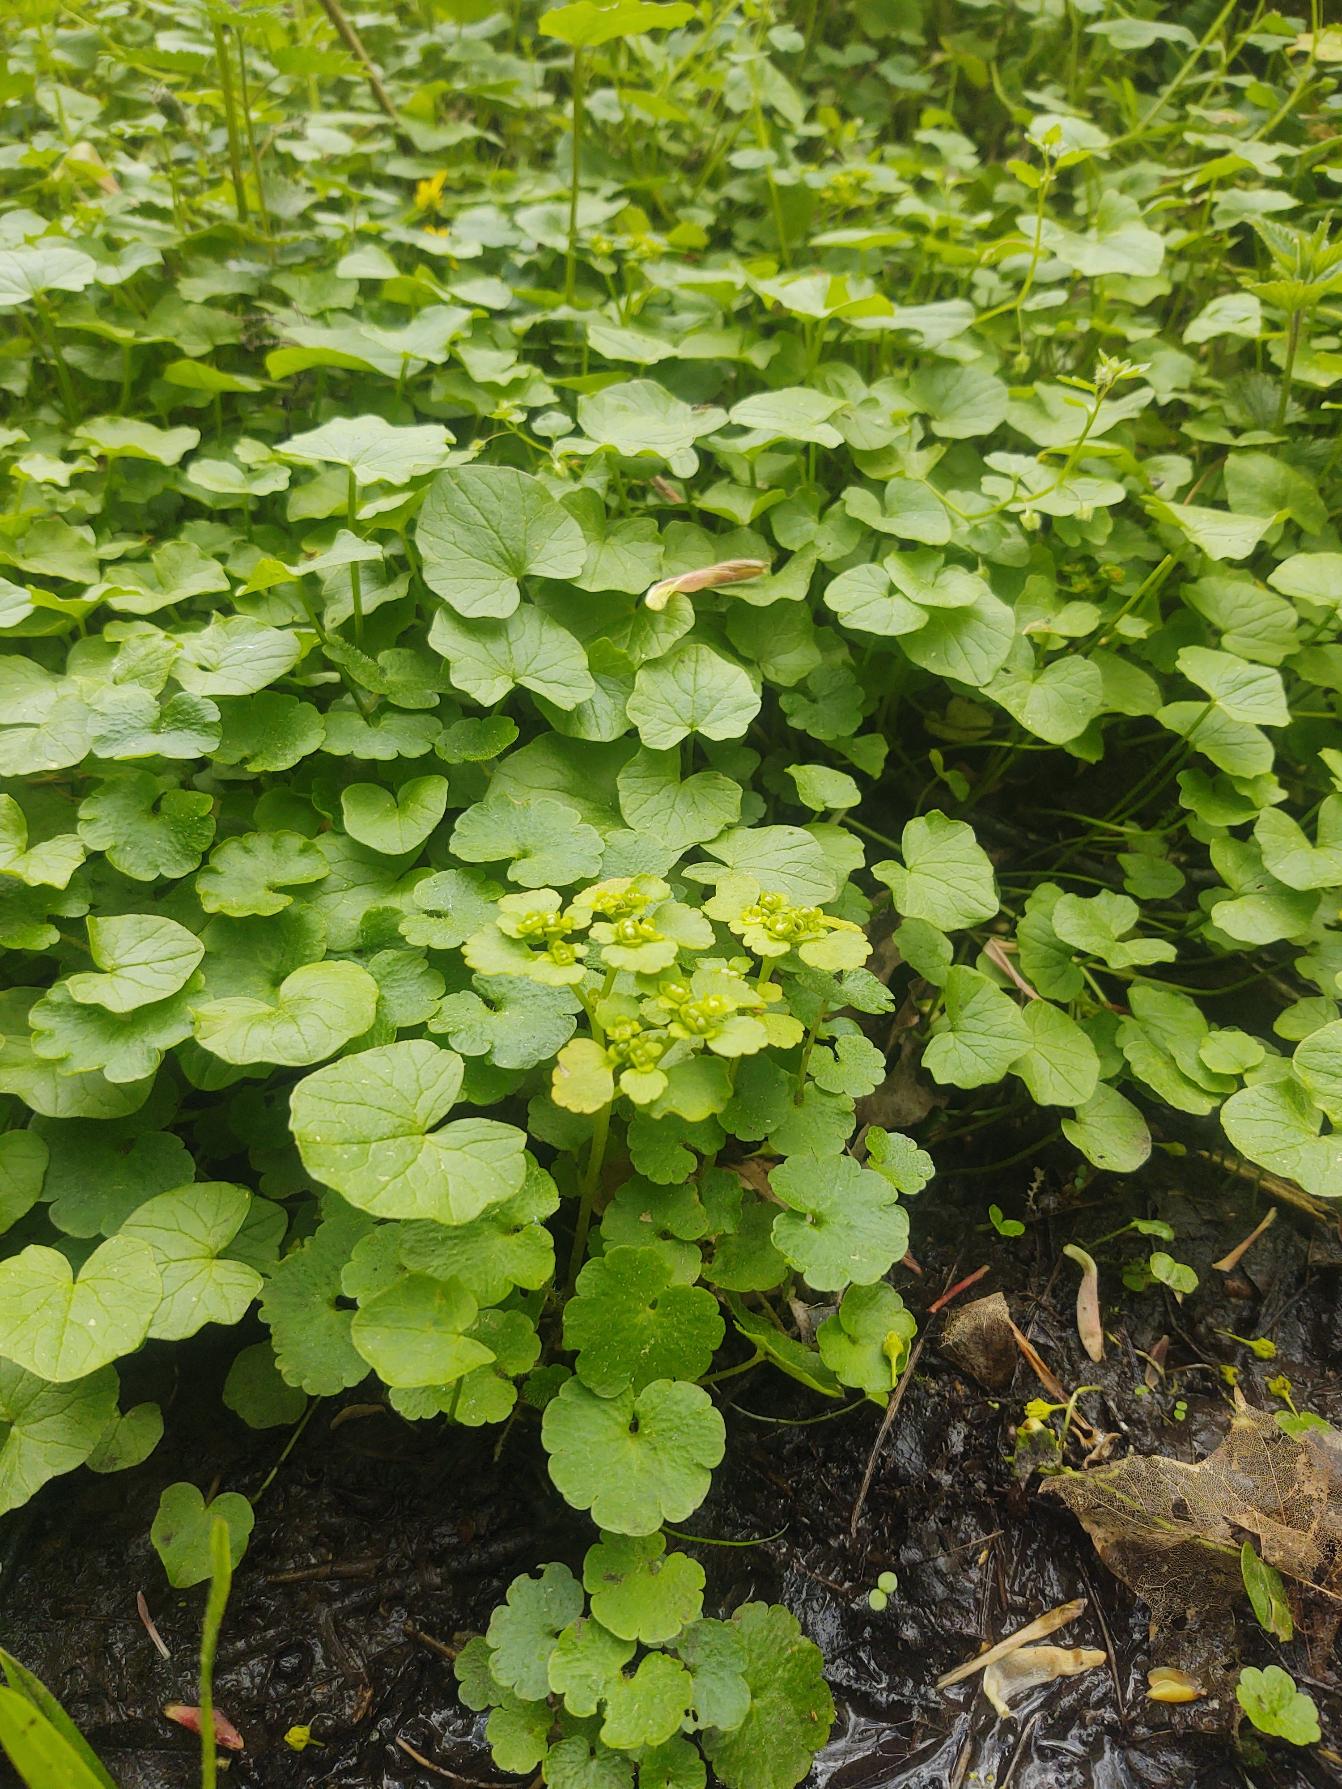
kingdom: Plantae
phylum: Tracheophyta
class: Magnoliopsida
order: Saxifragales
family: Saxifragaceae
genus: Chrysosplenium
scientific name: Chrysosplenium alternifolium
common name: Almindelig milturt
